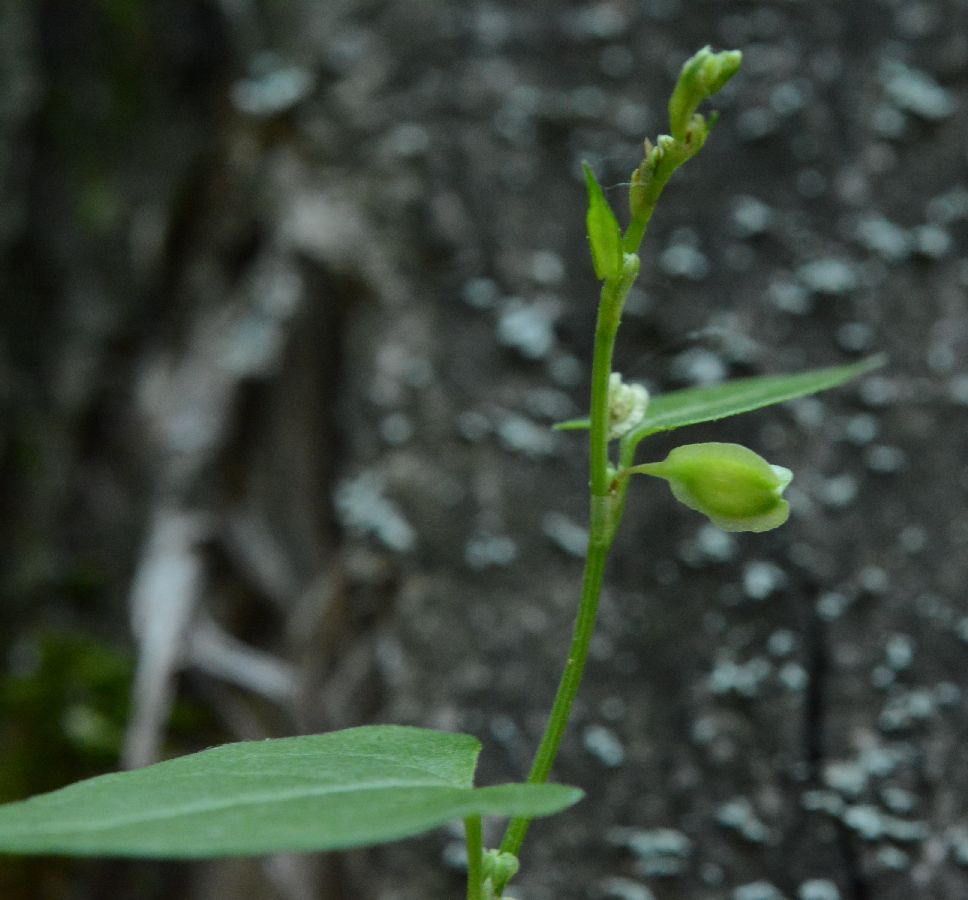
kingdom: Plantae
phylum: Tracheophyta
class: Magnoliopsida
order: Caryophyllales
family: Polygonaceae
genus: Fallopia
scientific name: Fallopia dumetorum
